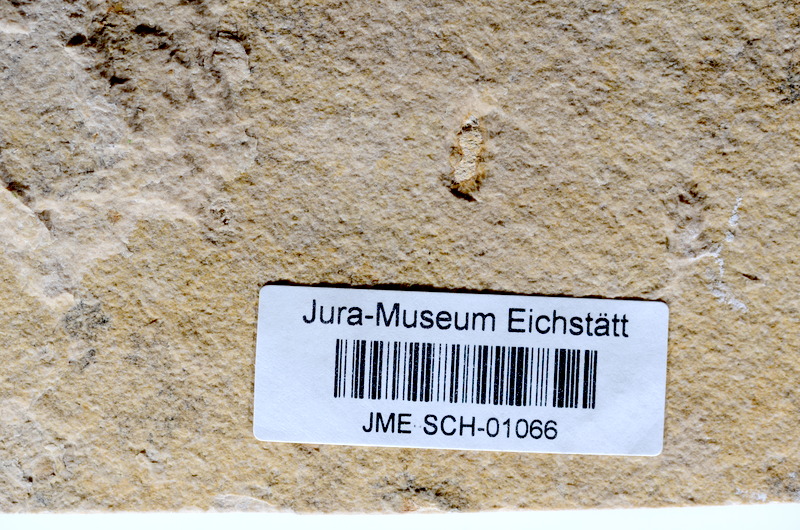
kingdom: Animalia
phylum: Chordata
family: Ascalaboidae
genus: Tharsis
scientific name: Tharsis dubius
